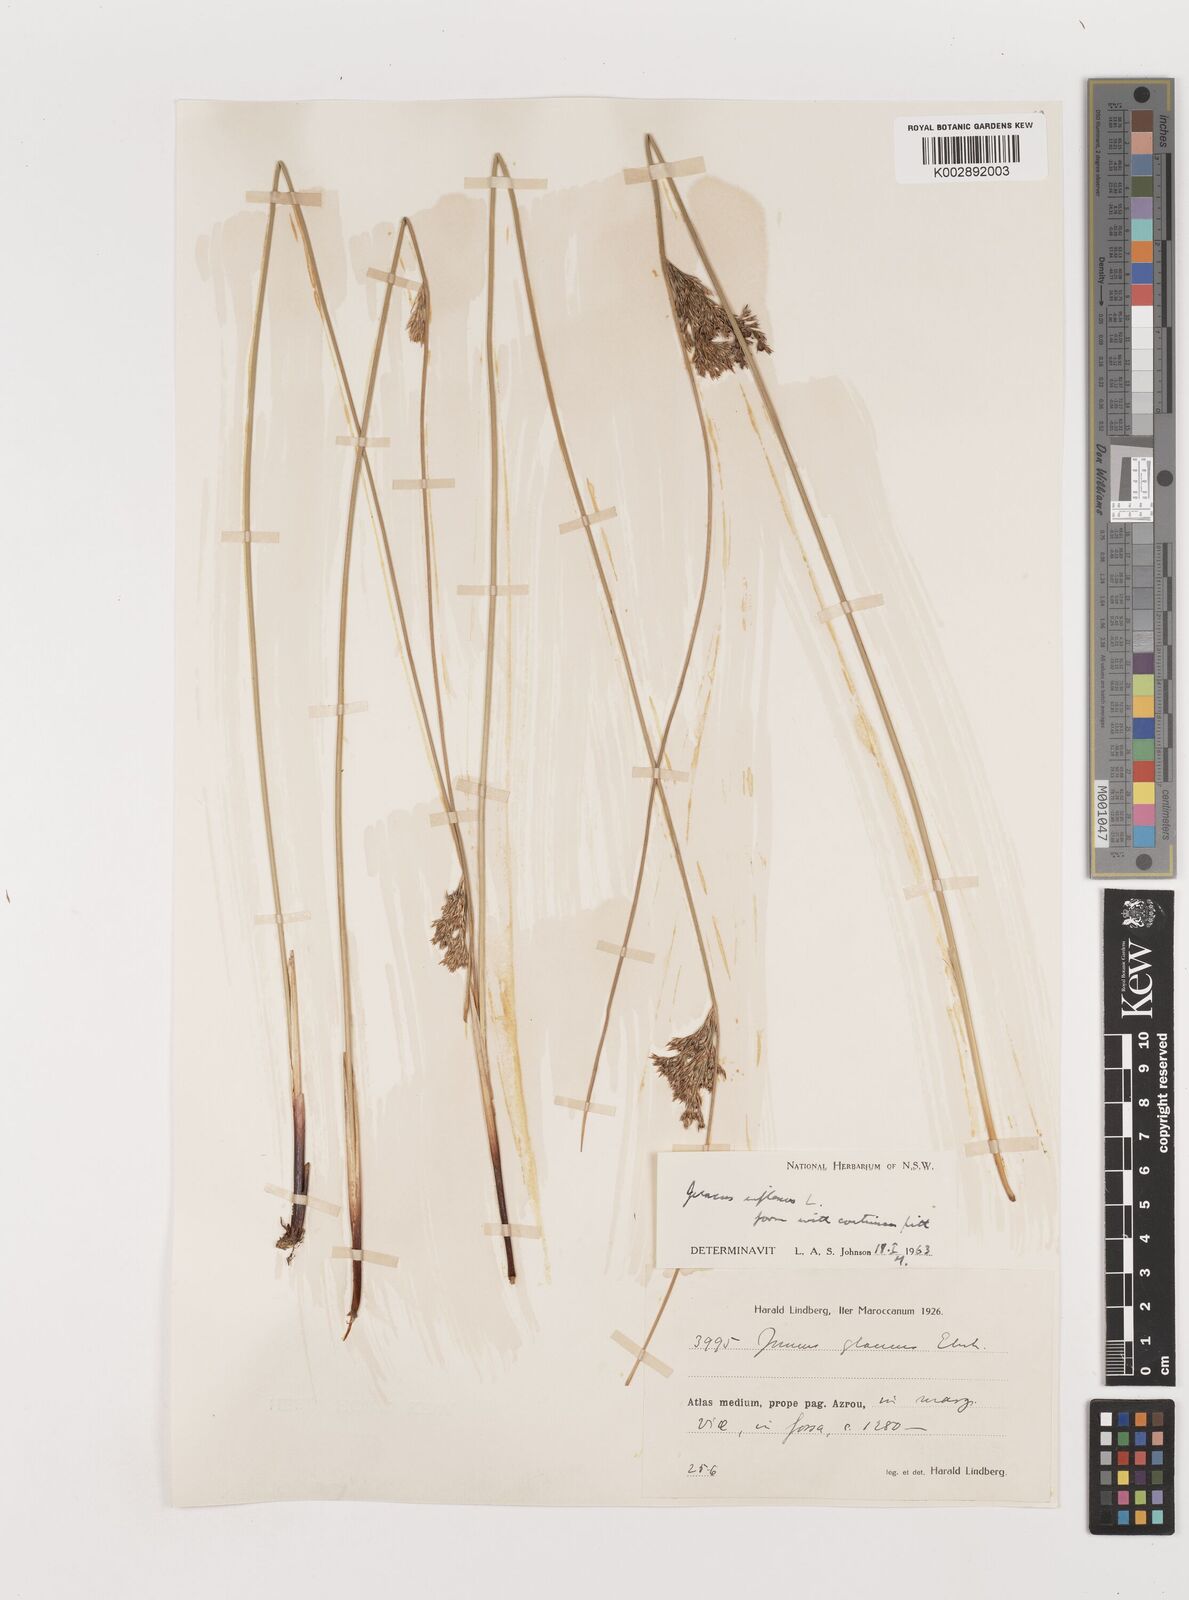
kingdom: Plantae
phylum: Tracheophyta
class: Liliopsida
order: Poales
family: Juncaceae
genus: Juncus
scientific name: Juncus inflexus
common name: Hard rush
